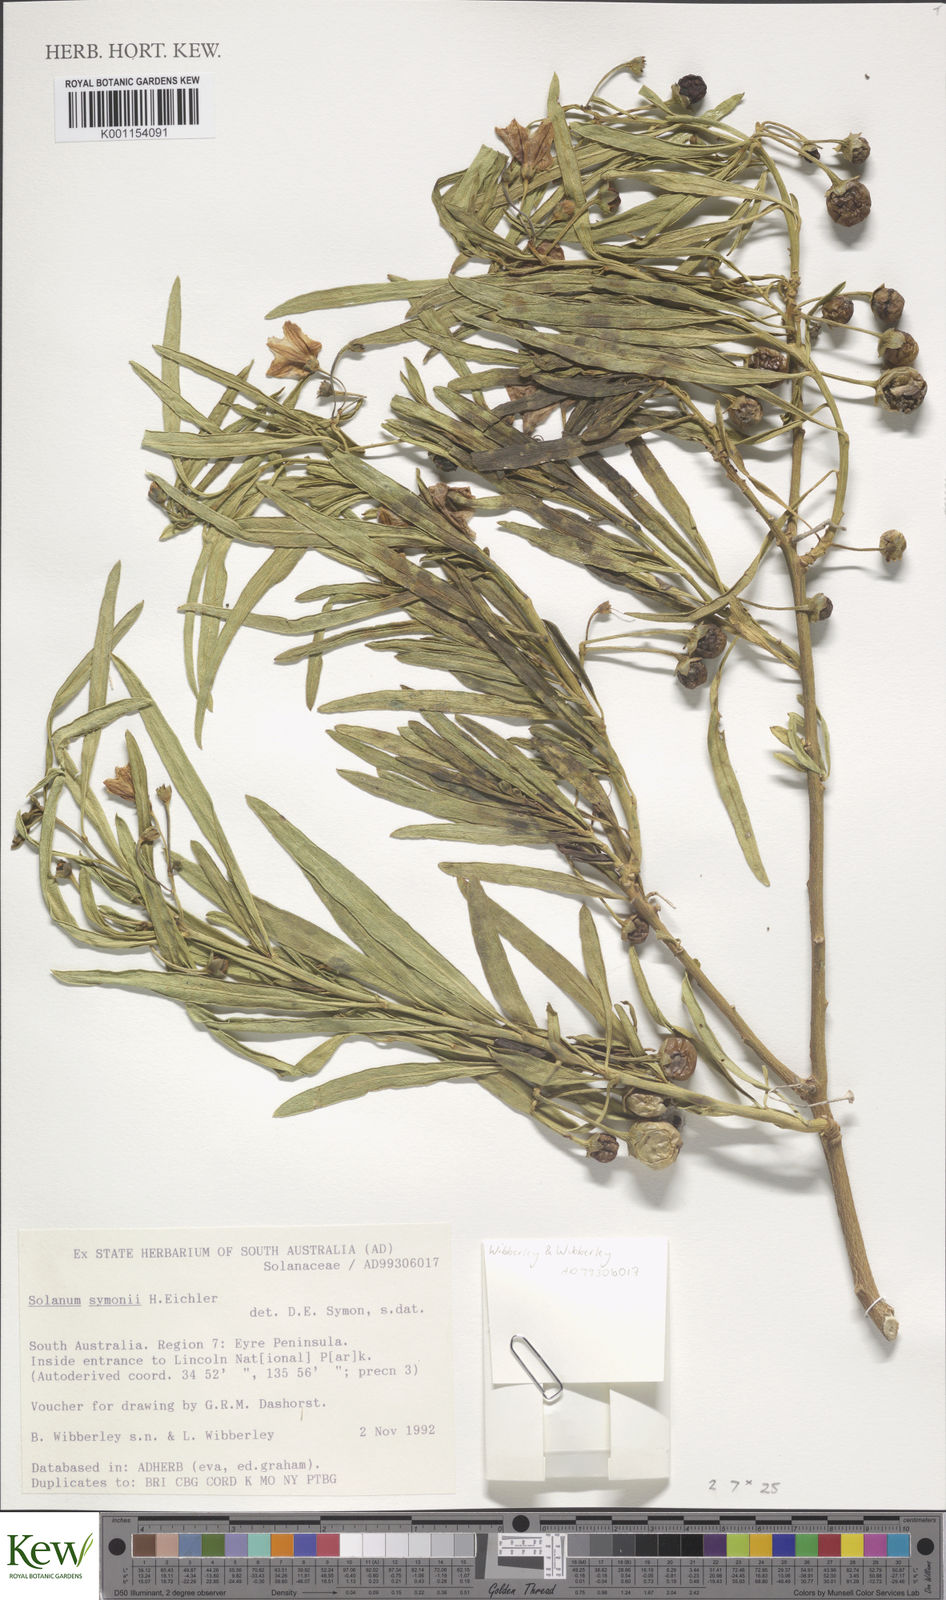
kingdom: Plantae
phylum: Tracheophyta
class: Magnoliopsida
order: Solanales
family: Solanaceae
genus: Solanum
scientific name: Solanum symonii
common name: South australian kangaroo-apple
